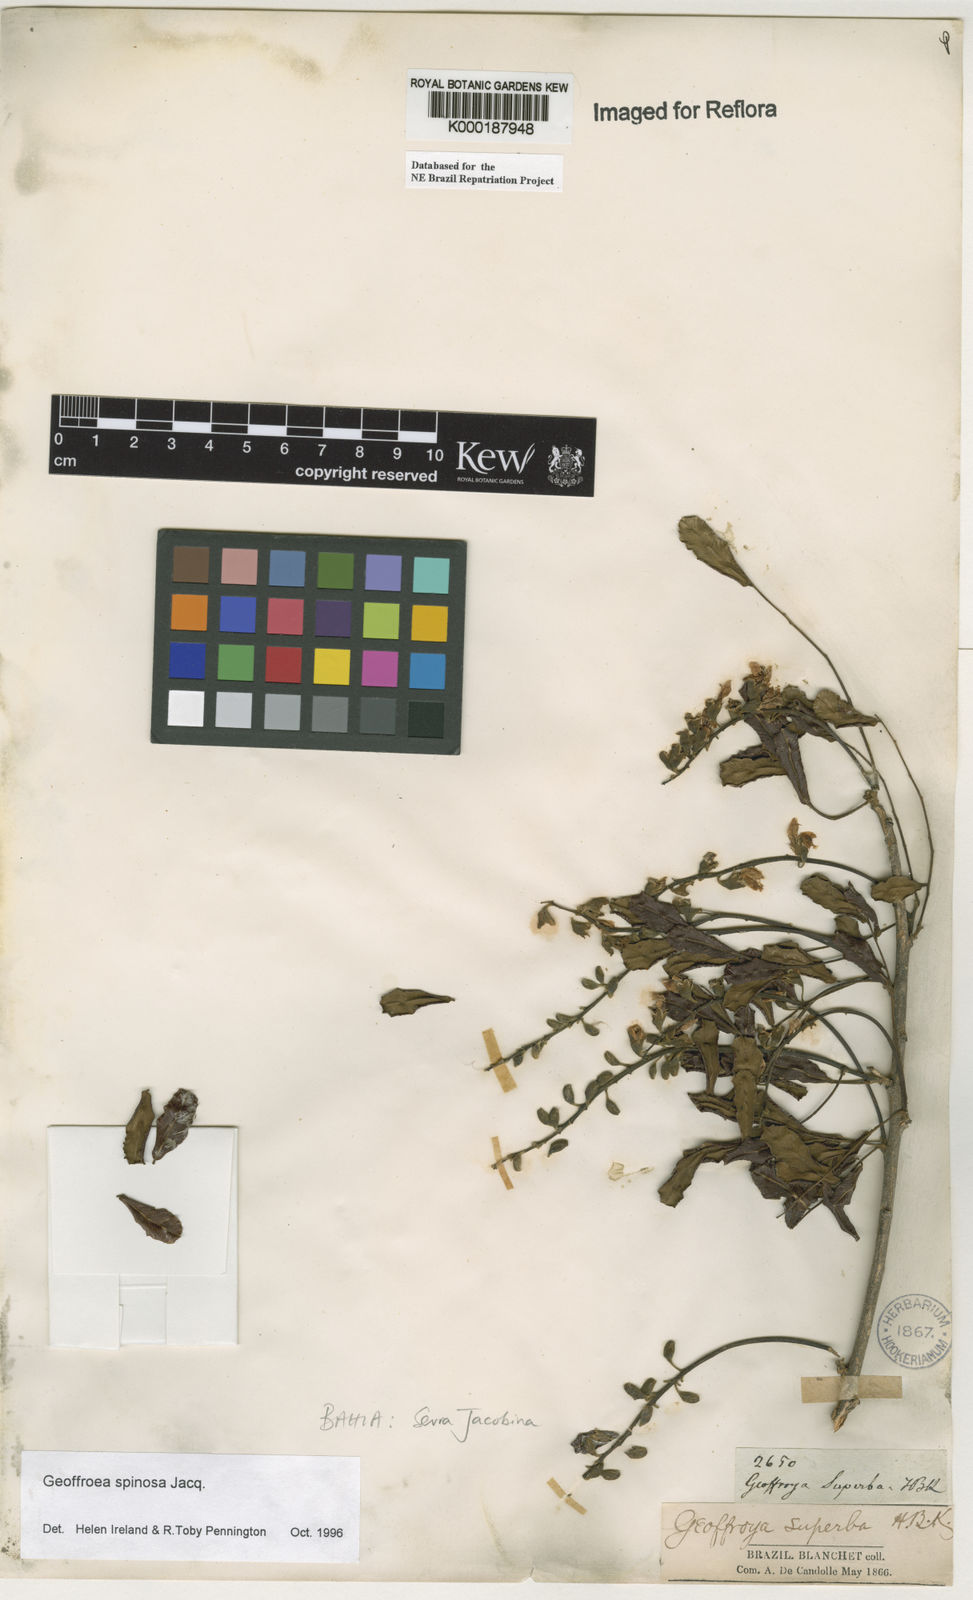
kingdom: Plantae
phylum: Tracheophyta
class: Magnoliopsida
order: Fabales
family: Fabaceae
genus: Geoffroea
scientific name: Geoffroea spinosa
